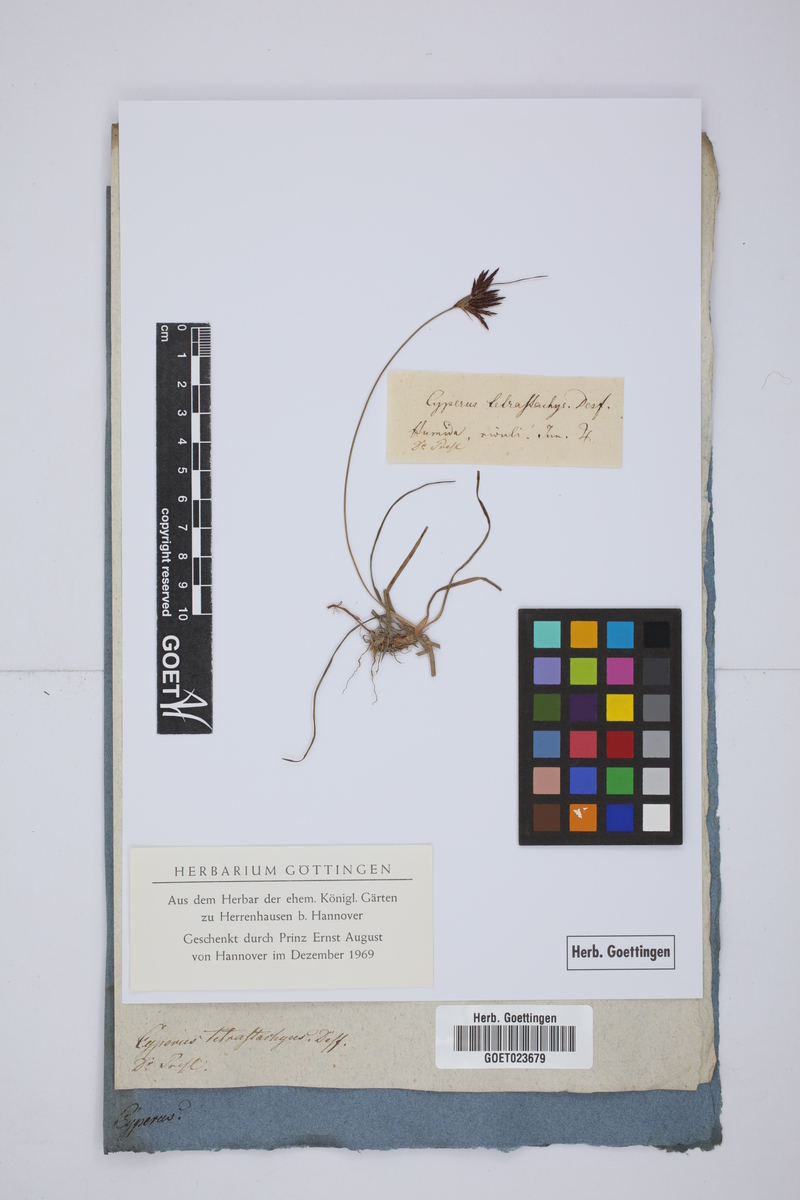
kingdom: Plantae
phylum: Tracheophyta
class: Liliopsida
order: Poales
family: Cyperaceae
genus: Cyperus
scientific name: Cyperus rotundus
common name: Nutgrass
